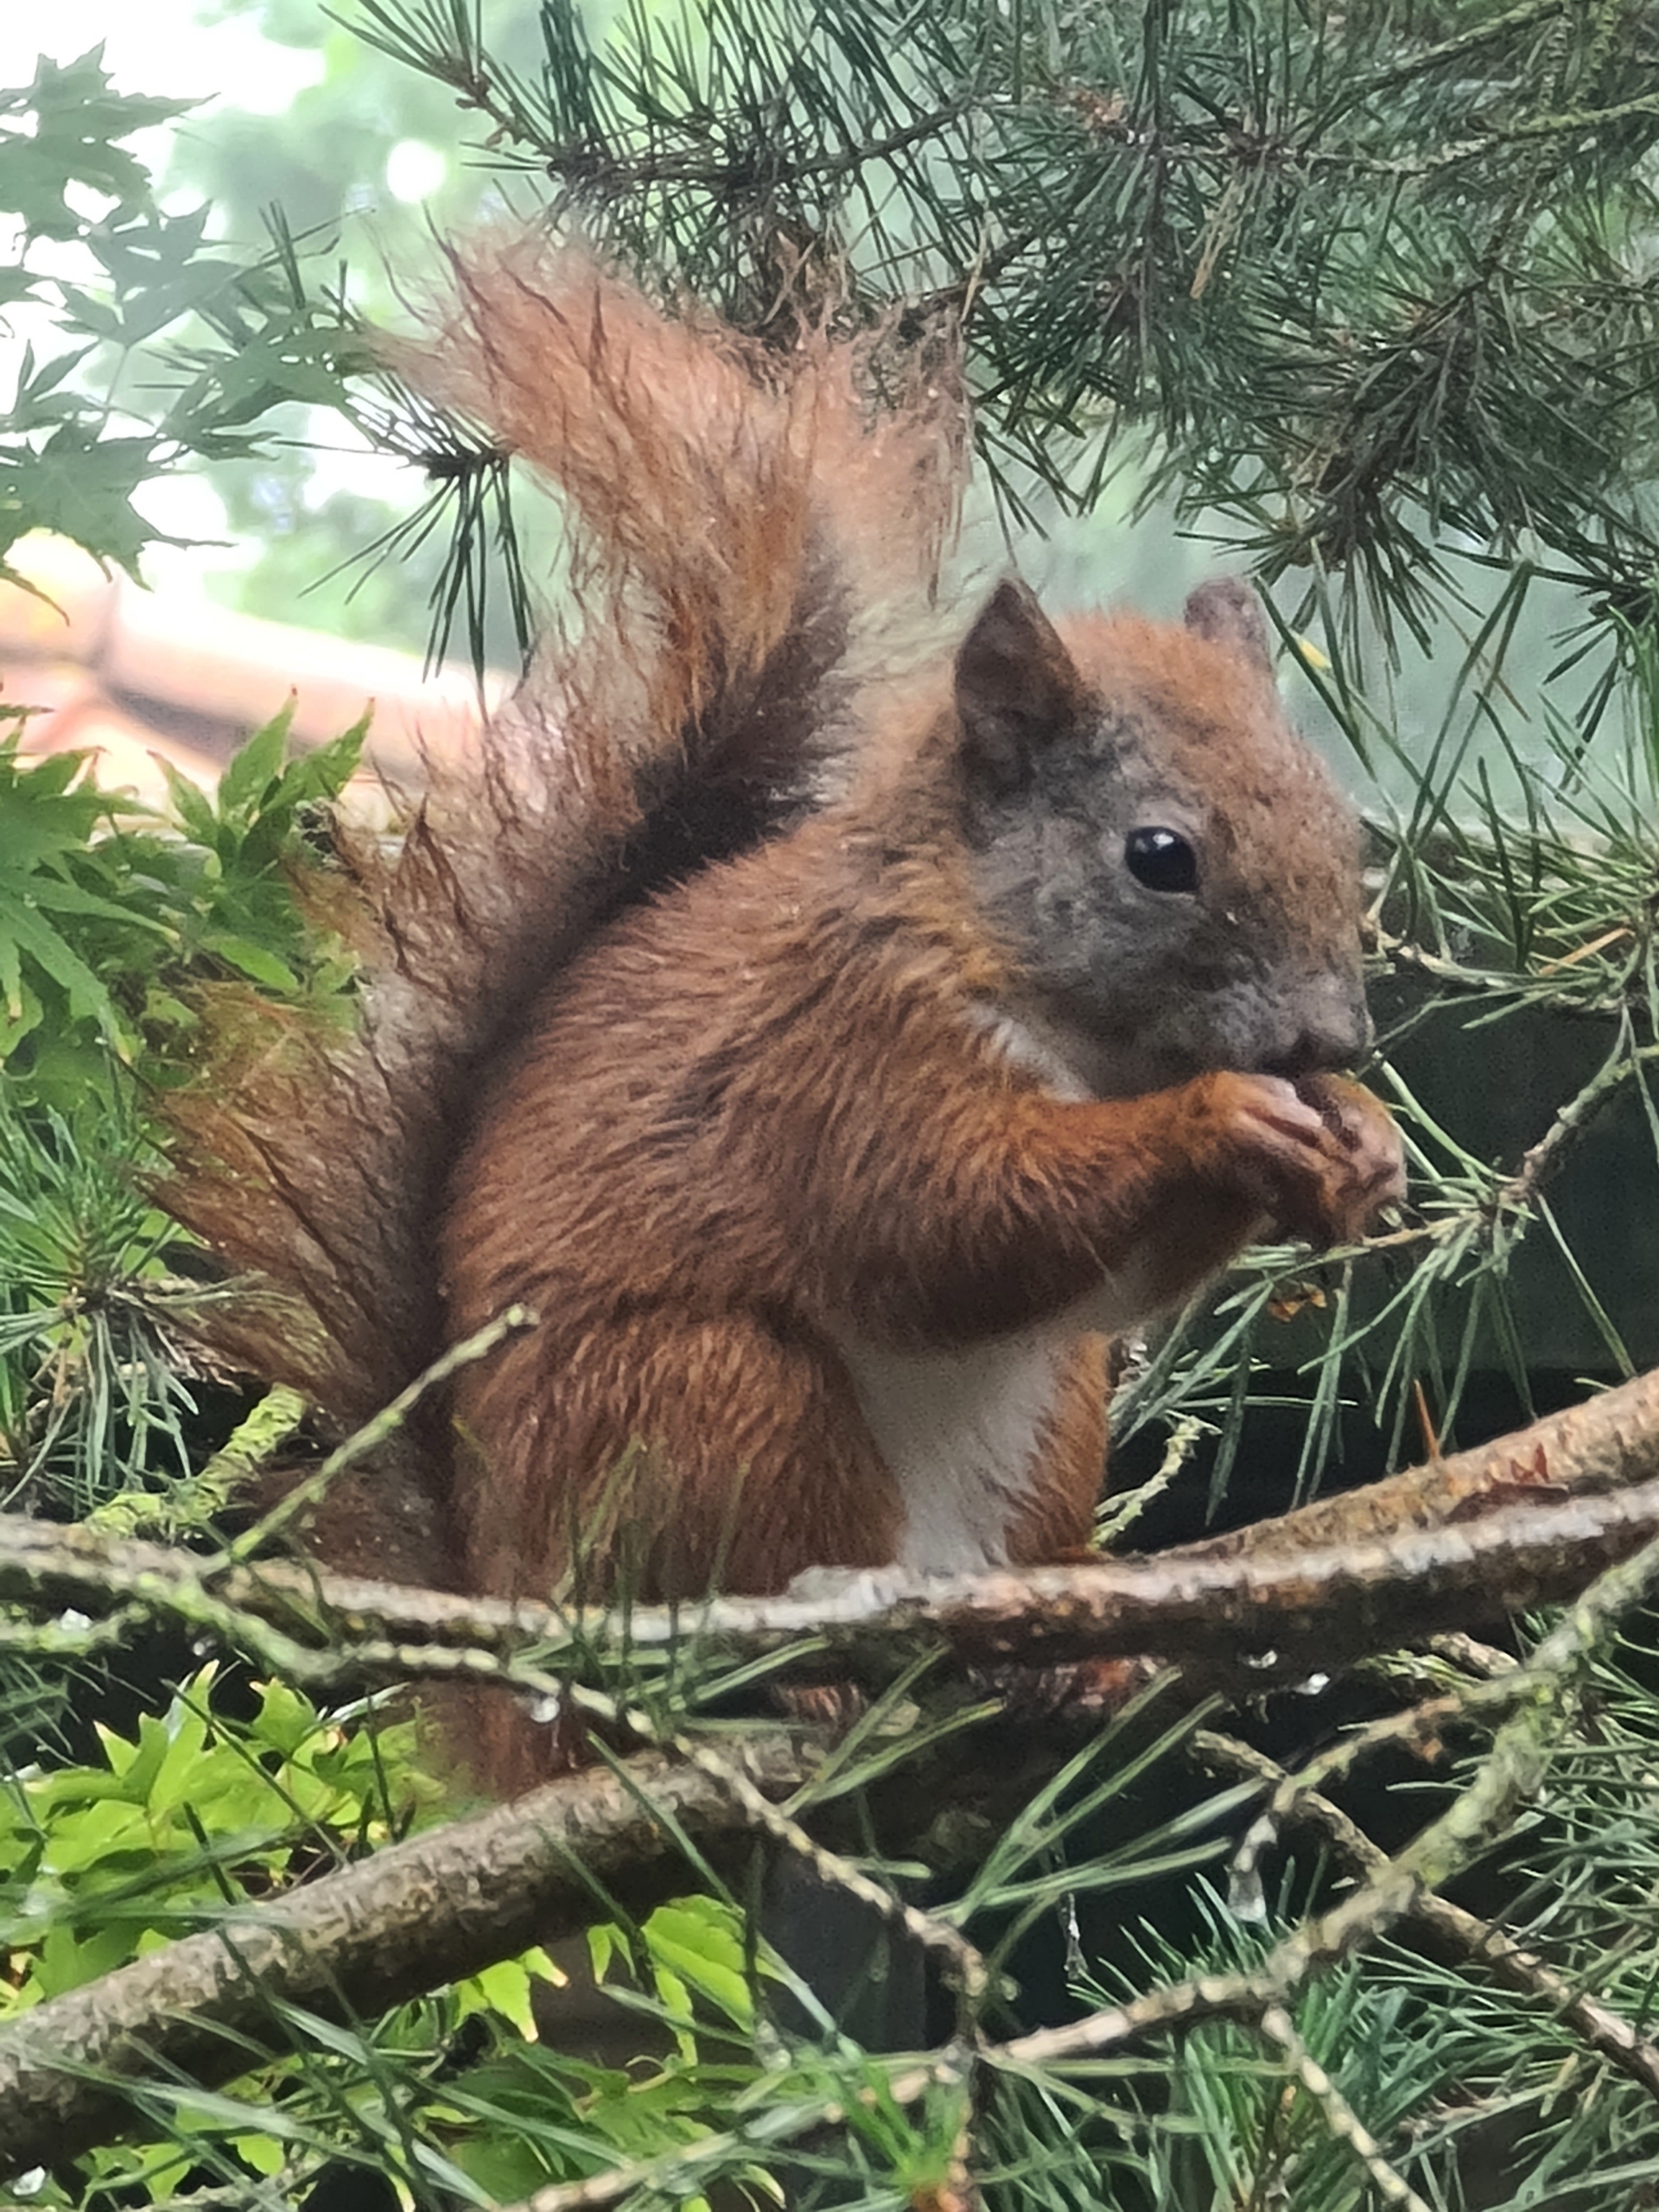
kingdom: Animalia
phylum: Chordata
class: Mammalia
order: Rodentia
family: Sciuridae
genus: Sciurus
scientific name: Sciurus vulgaris
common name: Egern
